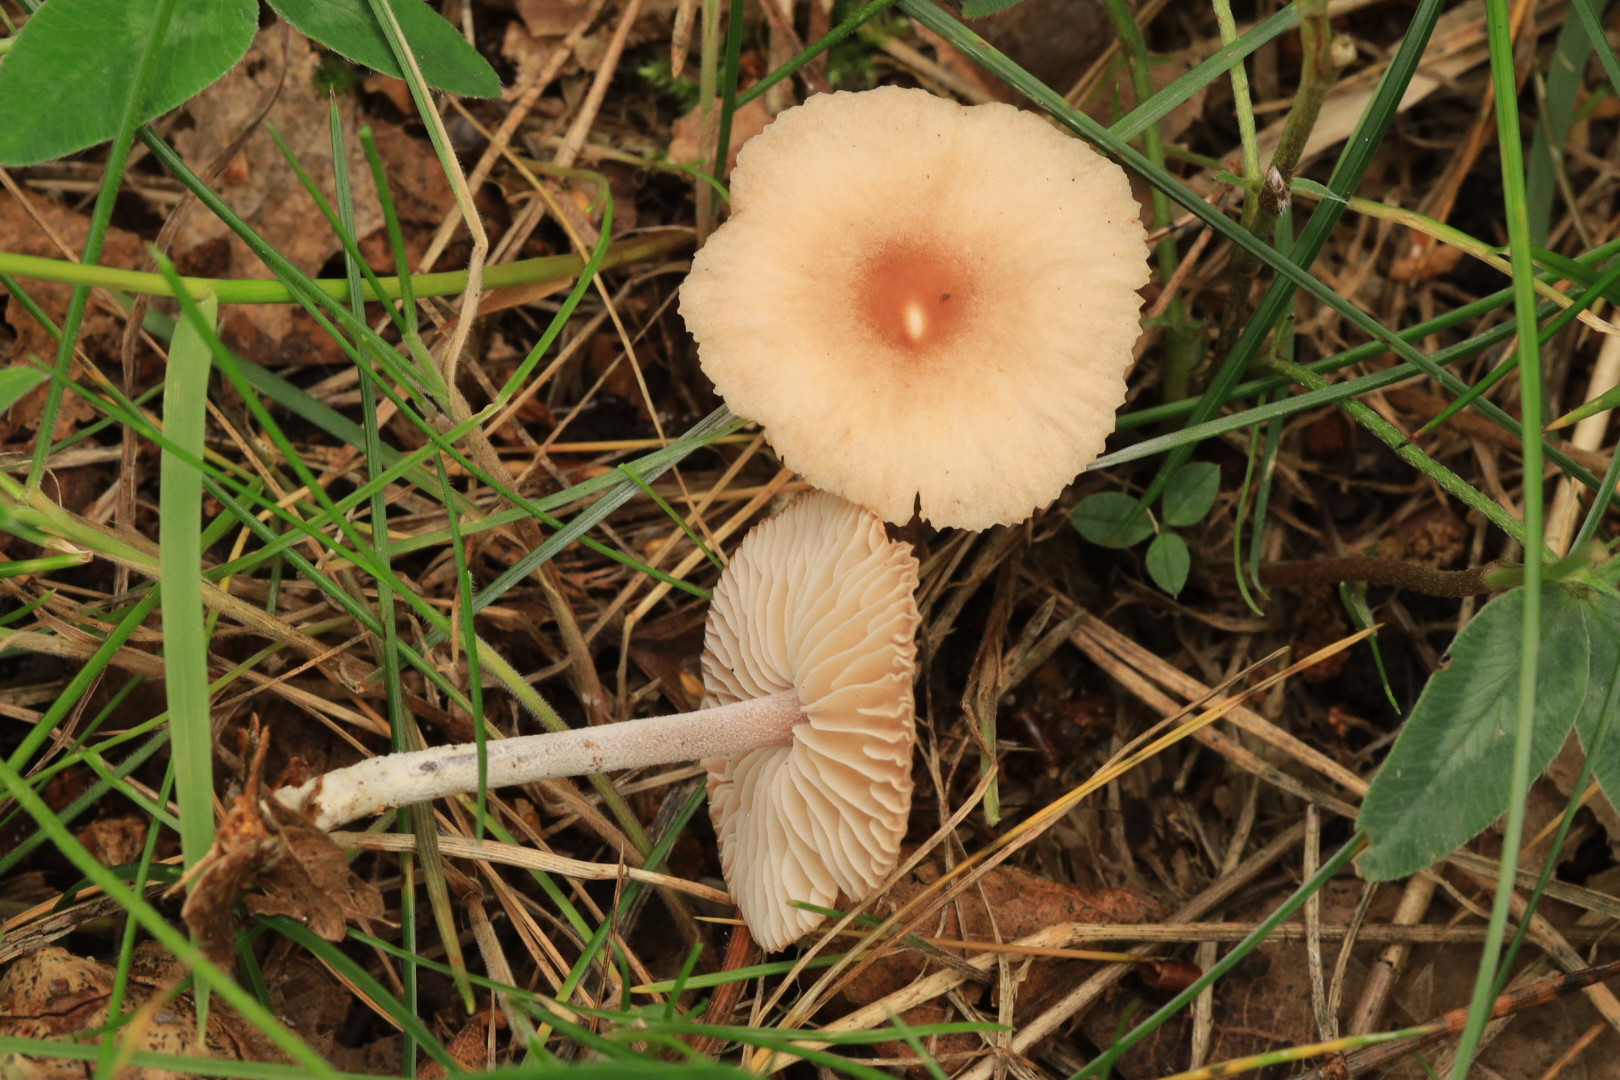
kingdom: Fungi
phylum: Basidiomycota
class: Agaricomycetes
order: Agaricales
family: Marasmiaceae
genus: Marasmius
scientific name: Marasmius oreades
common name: elledans-bruskhat
